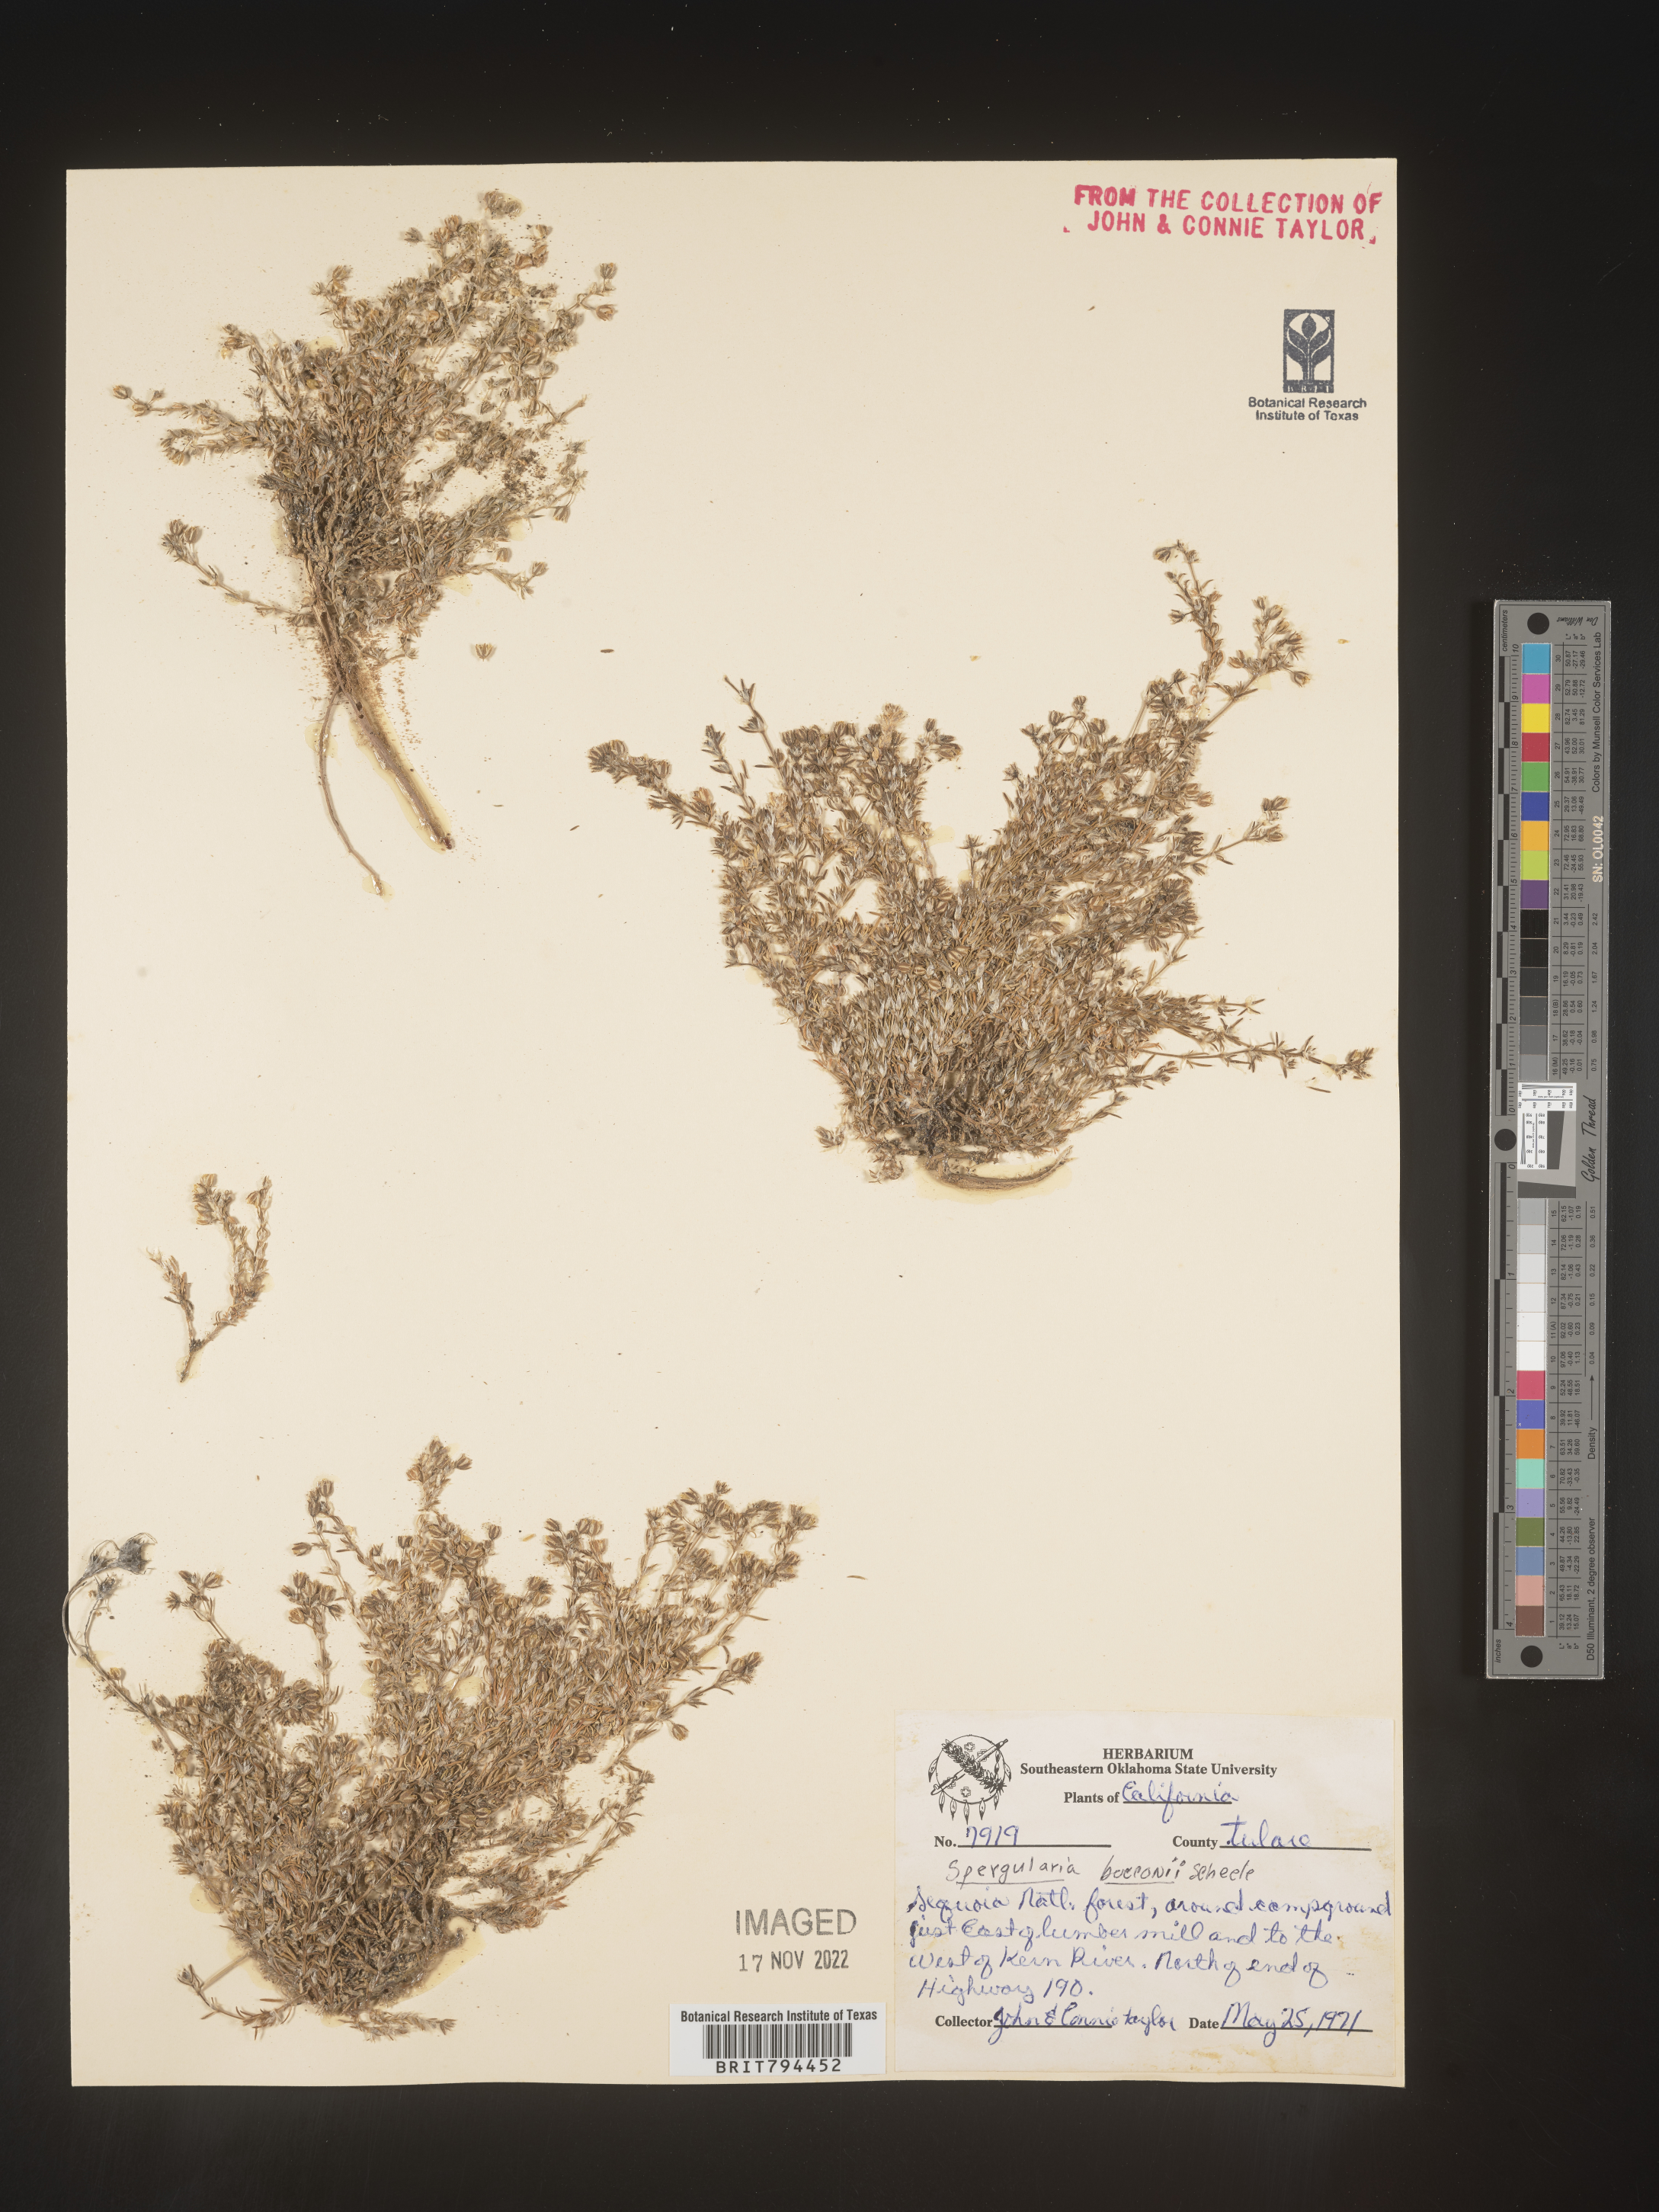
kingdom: Plantae
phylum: Tracheophyta
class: Magnoliopsida
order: Caryophyllales
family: Caryophyllaceae
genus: Spergularia
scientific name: Spergularia bocconei
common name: Greek sea-spurrey
